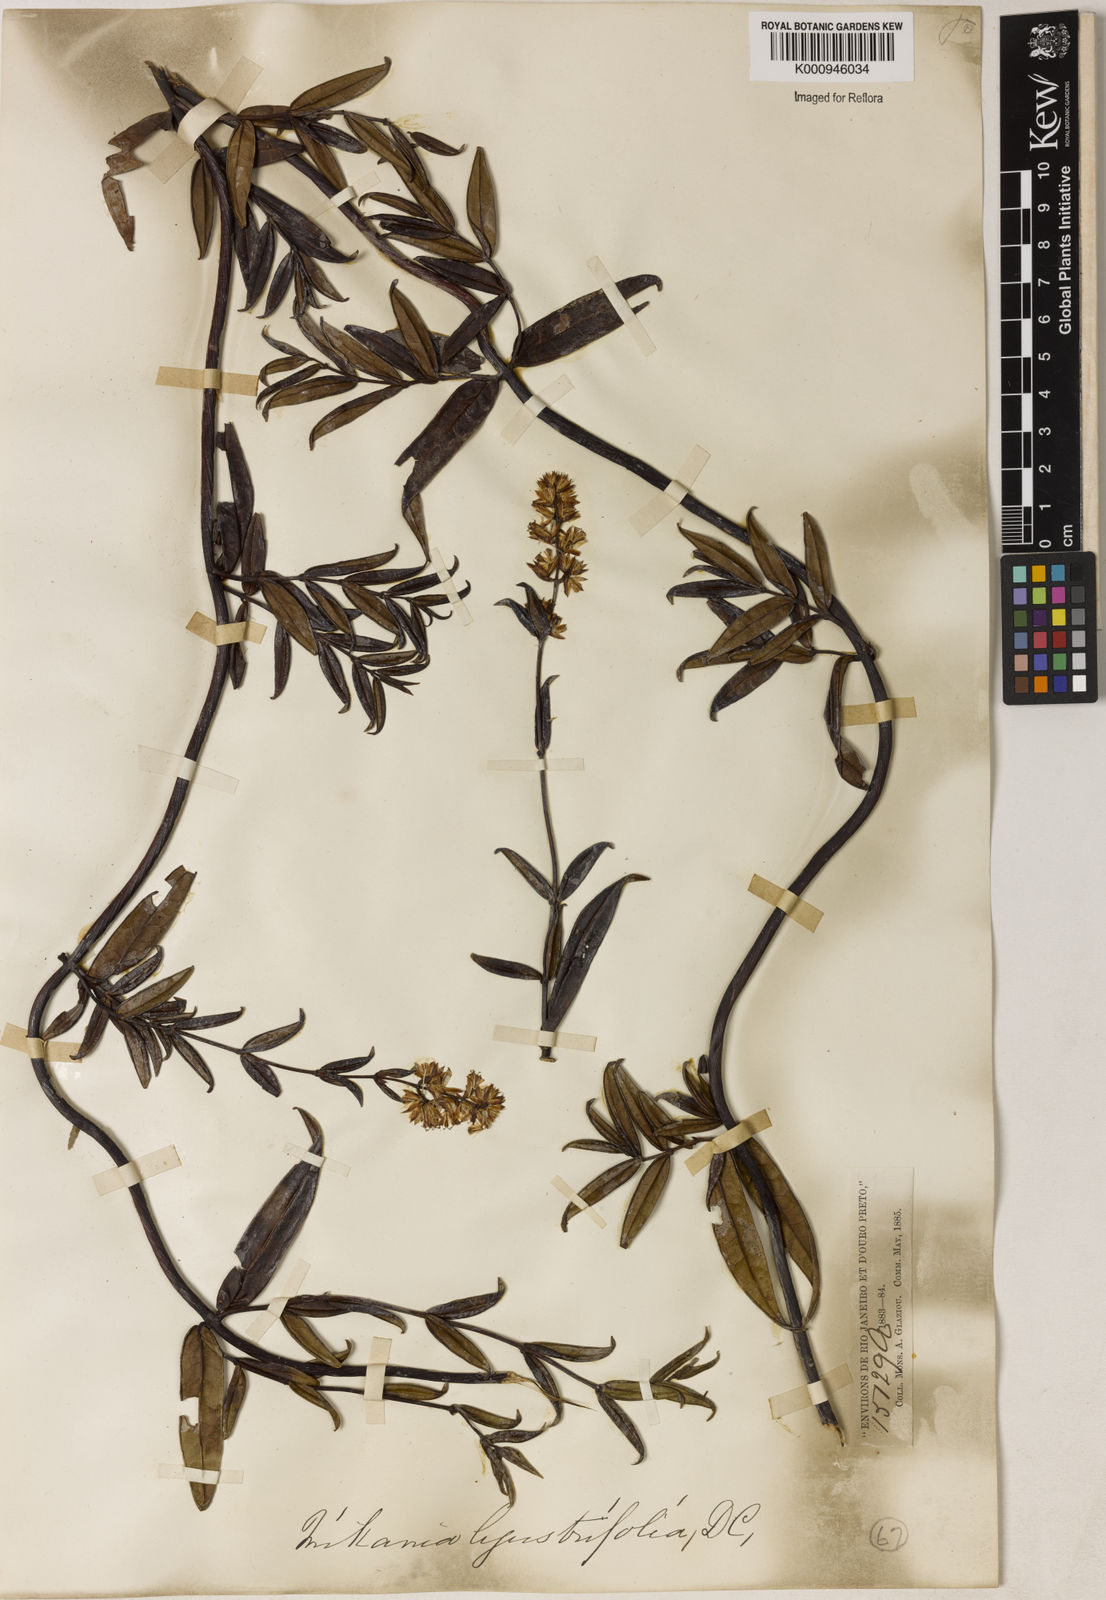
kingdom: Plantae
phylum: Tracheophyta
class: Magnoliopsida
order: Asterales
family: Asteraceae
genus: Mikania
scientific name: Mikania ligustrifolia
